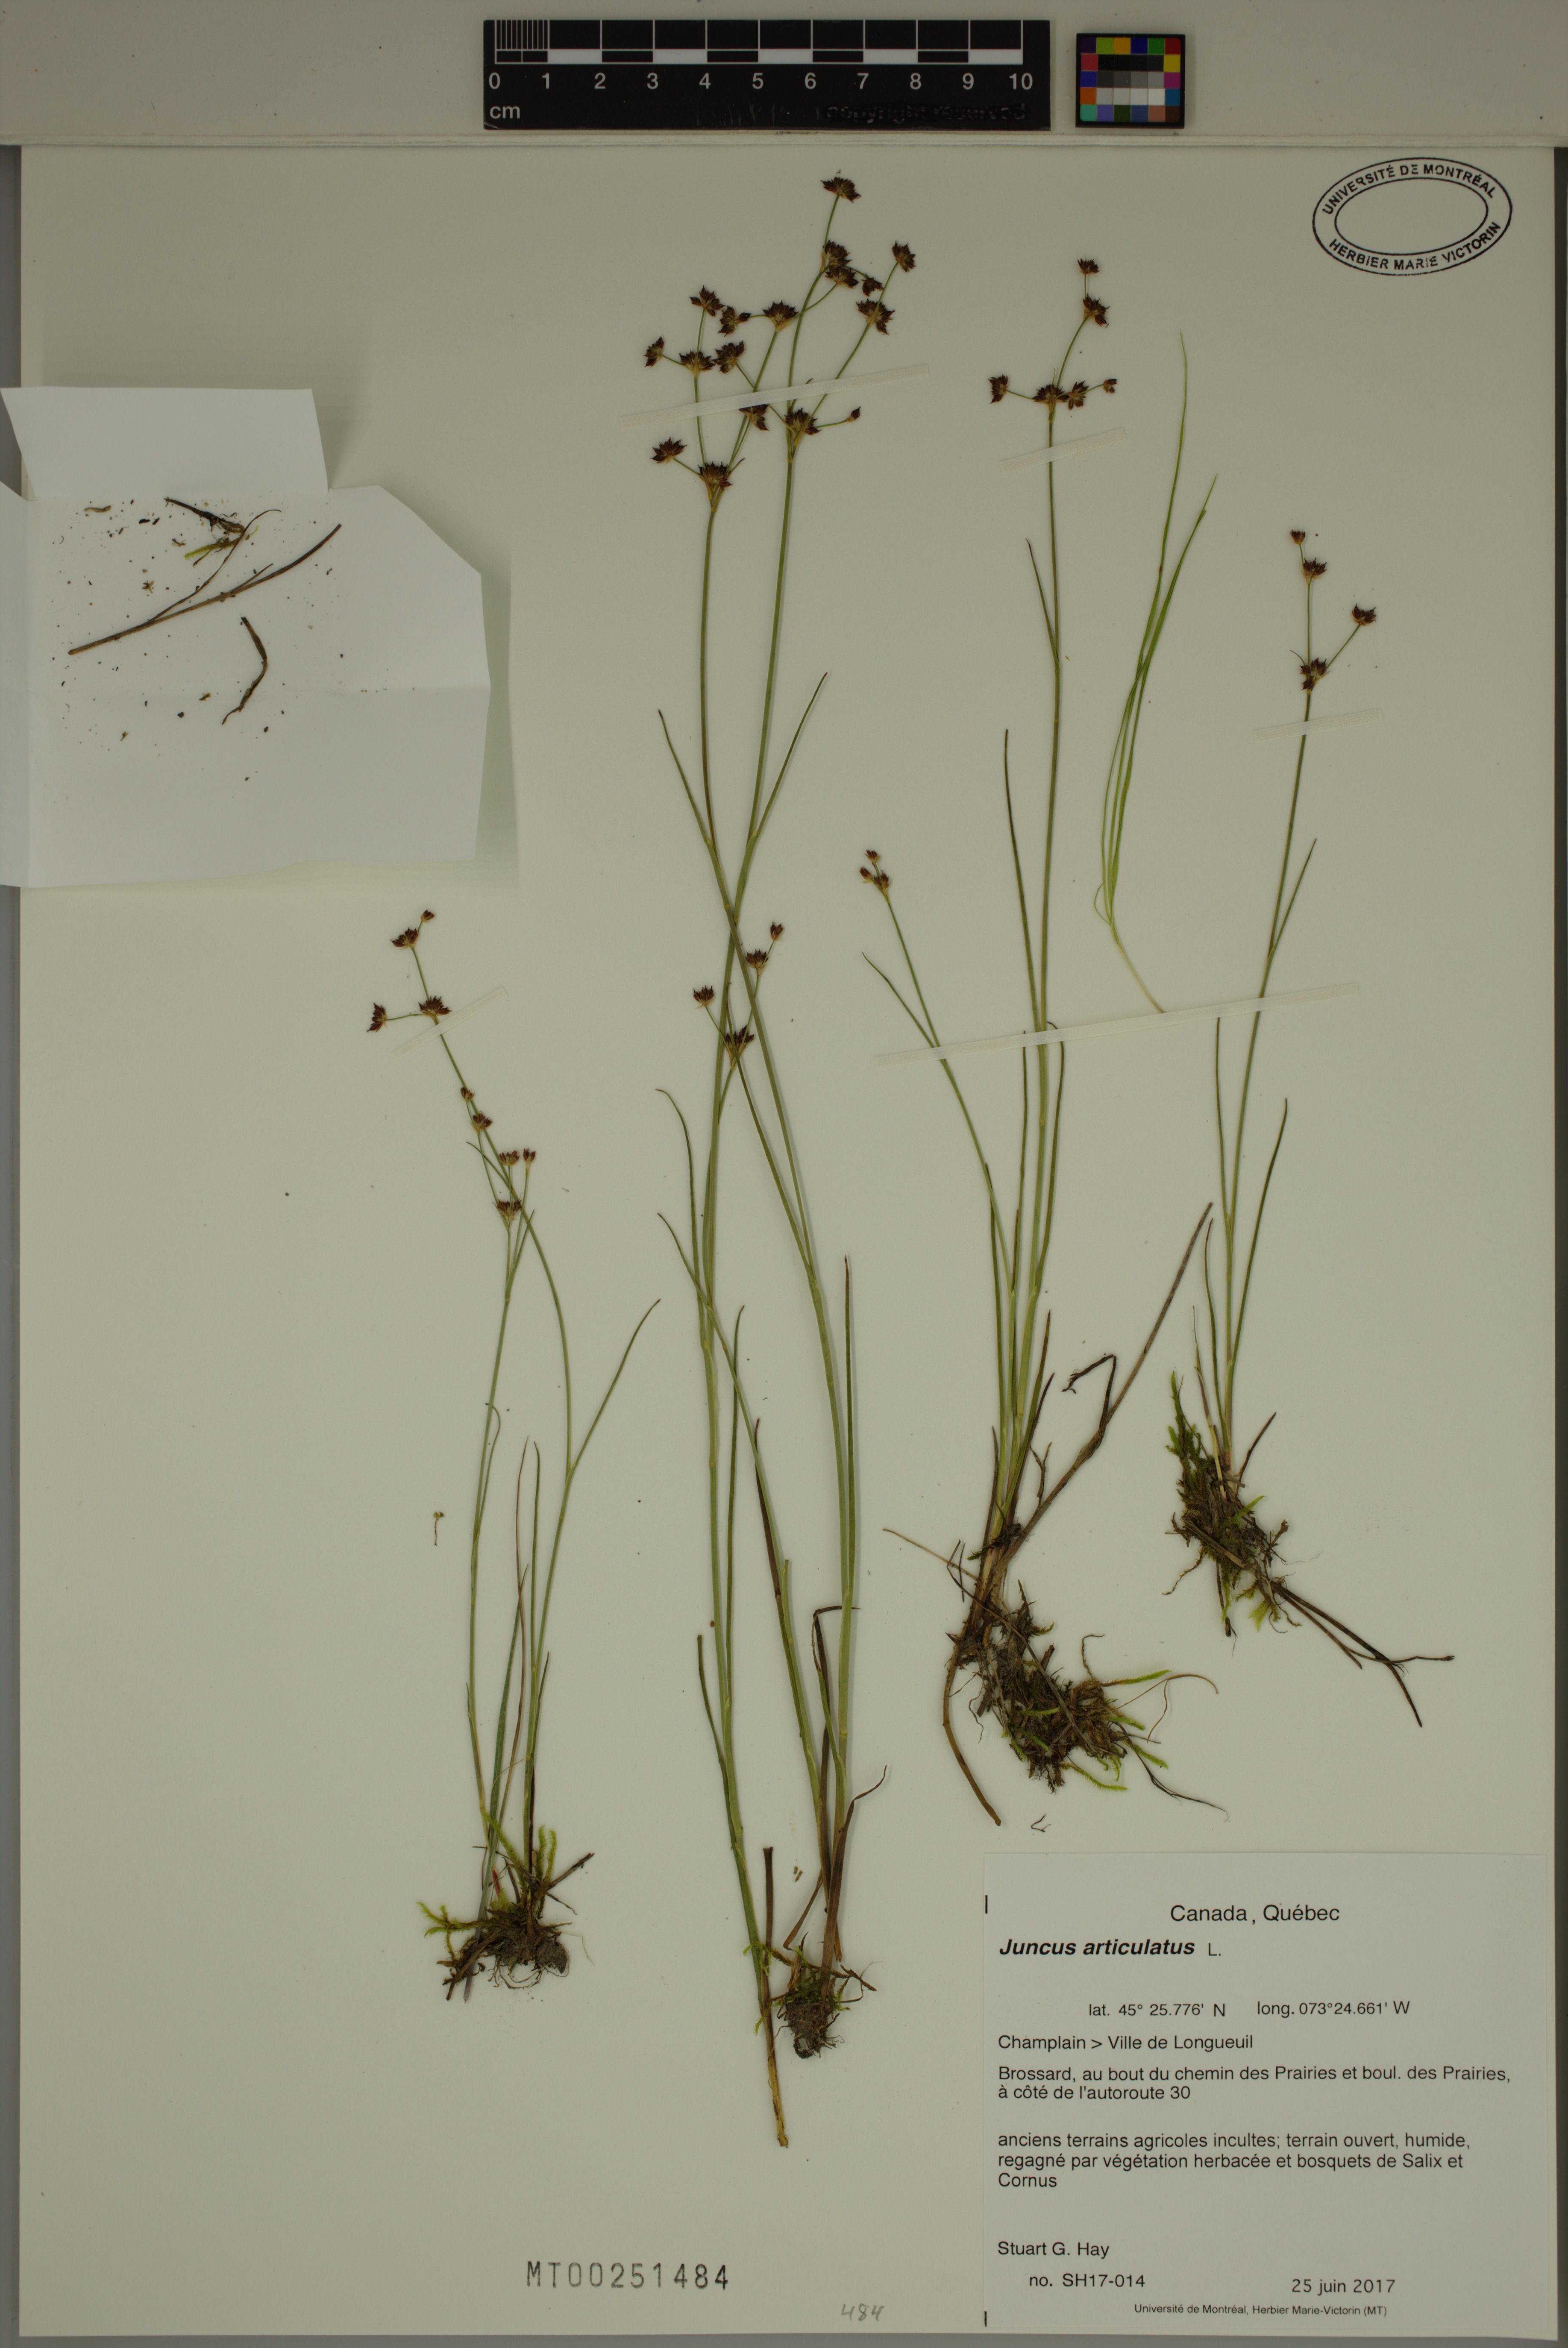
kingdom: Plantae
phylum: Tracheophyta
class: Liliopsida
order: Poales
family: Juncaceae
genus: Juncus
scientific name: Juncus articulatus
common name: Jointed rush
